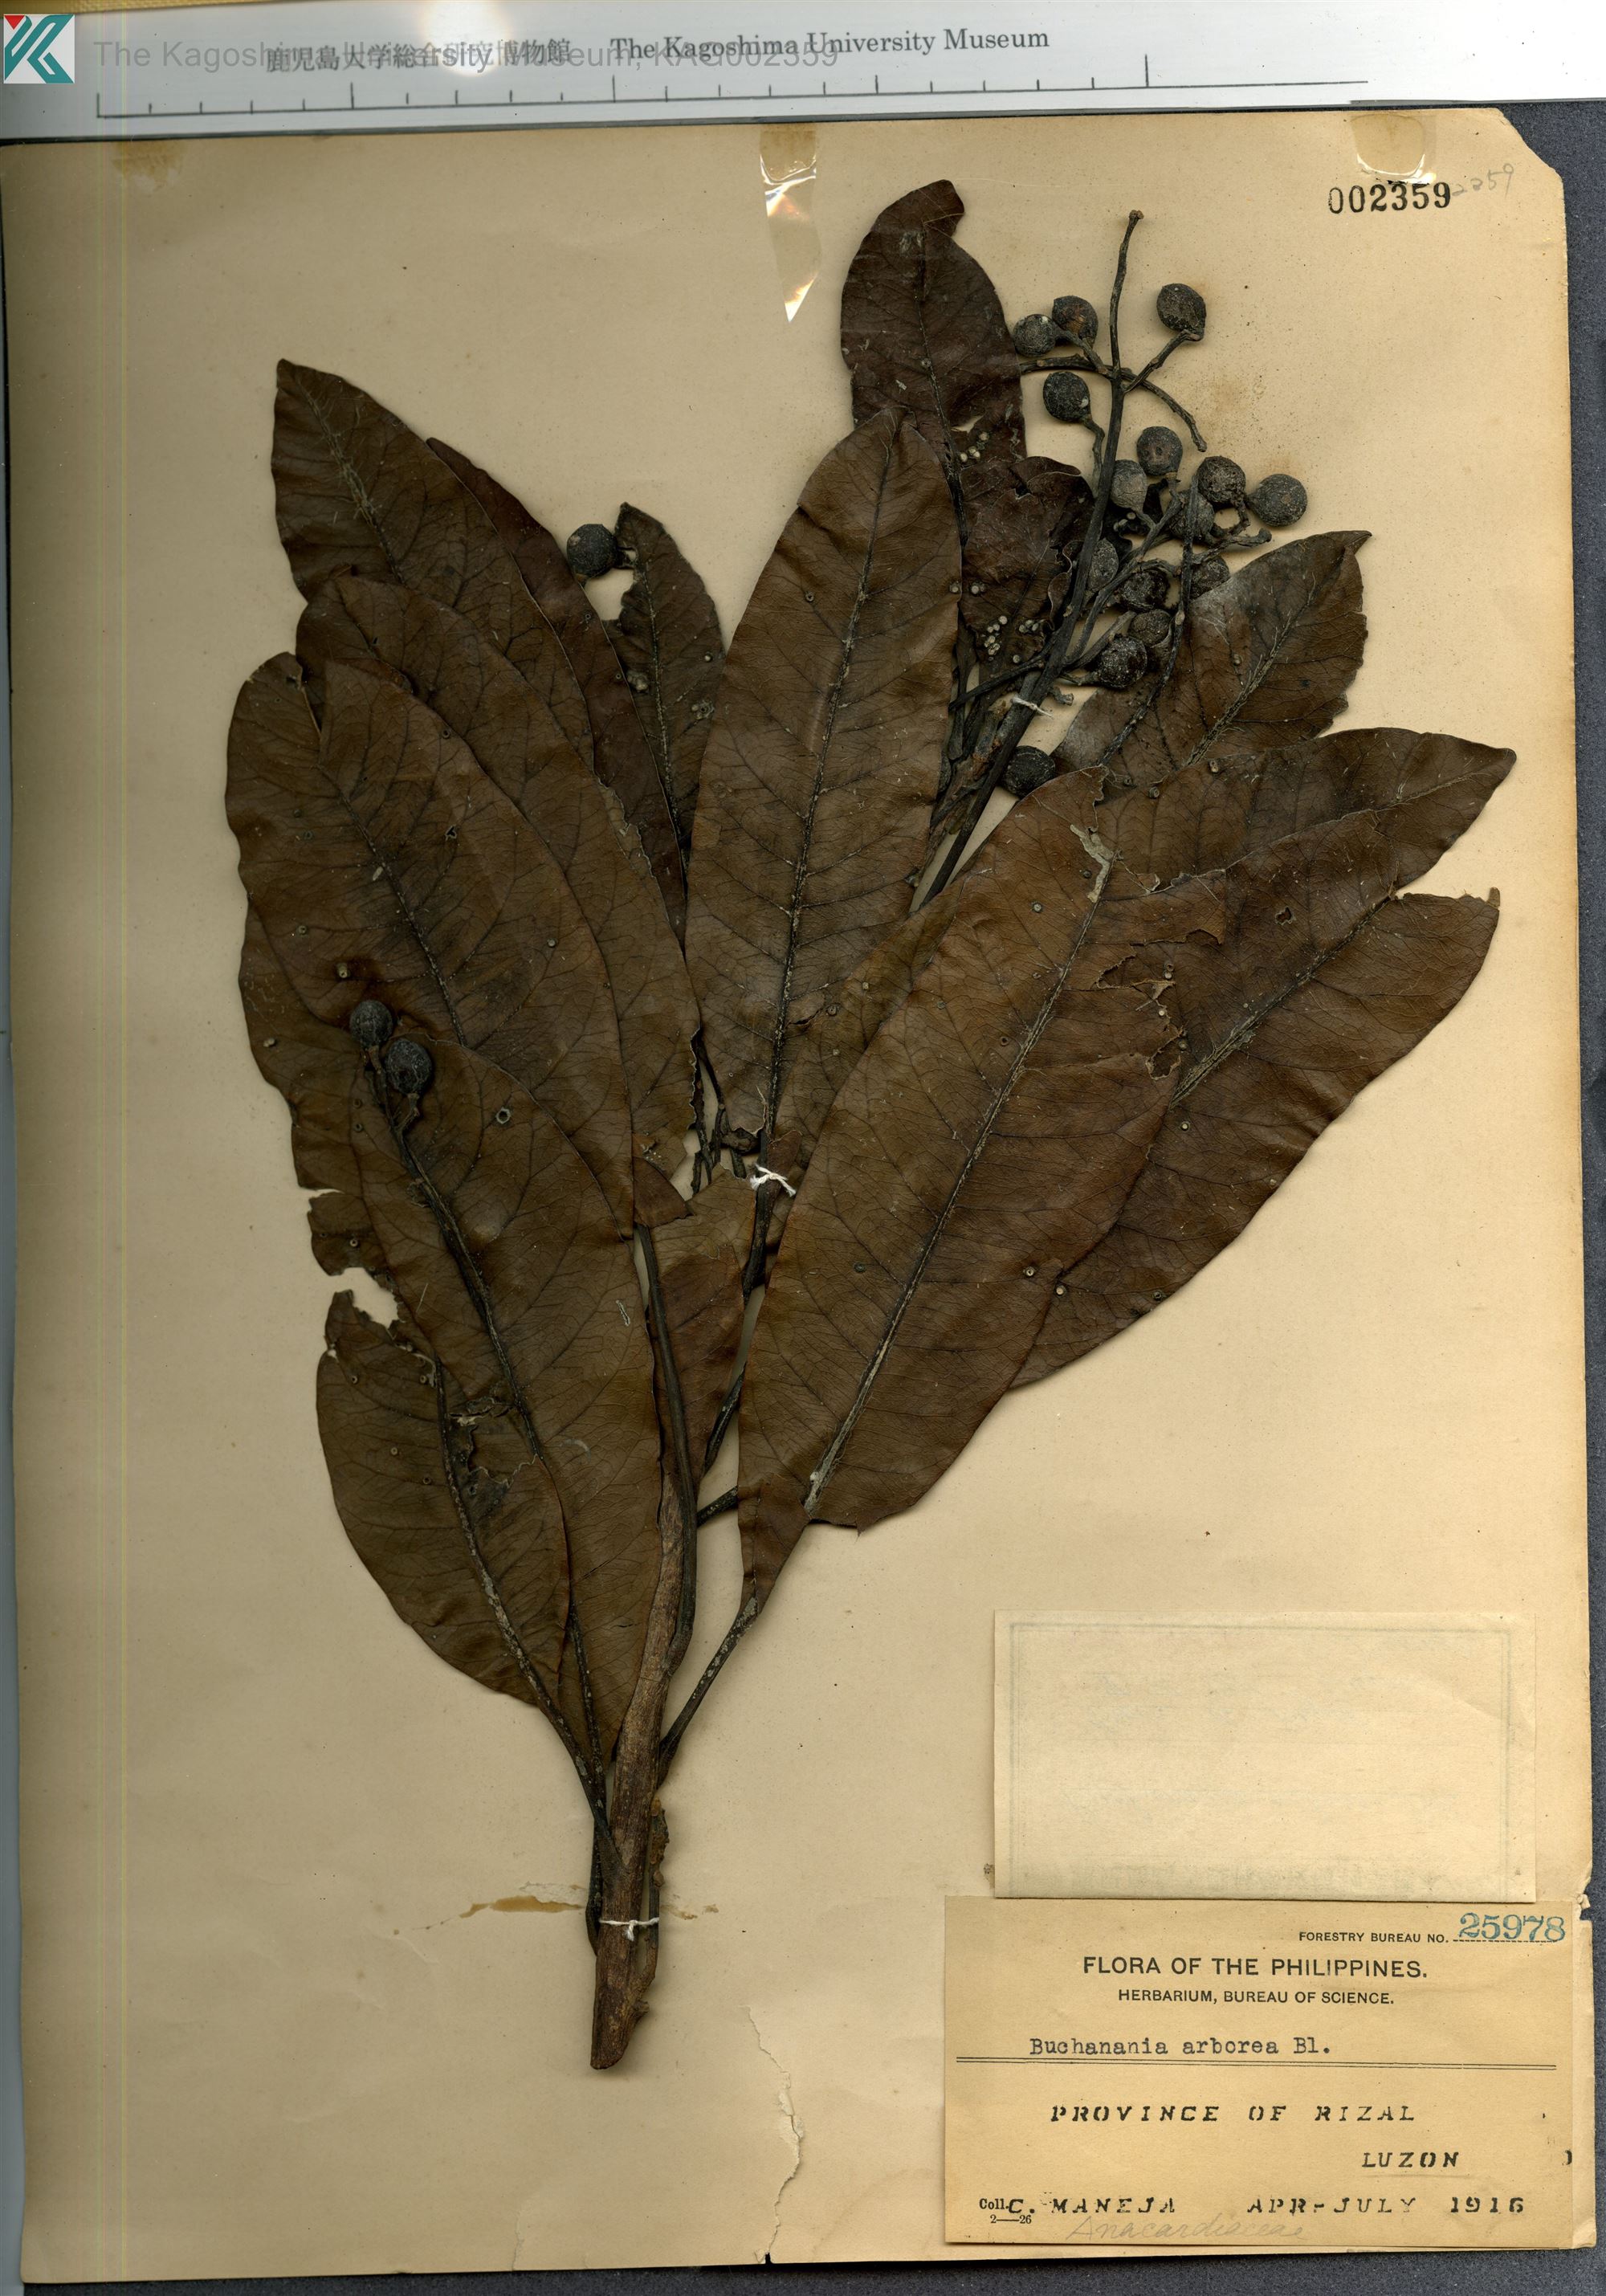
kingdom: Plantae
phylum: Tracheophyta
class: Magnoliopsida
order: Sapindales
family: Anacardiaceae
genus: Buchanania
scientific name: Buchanania arborescens
